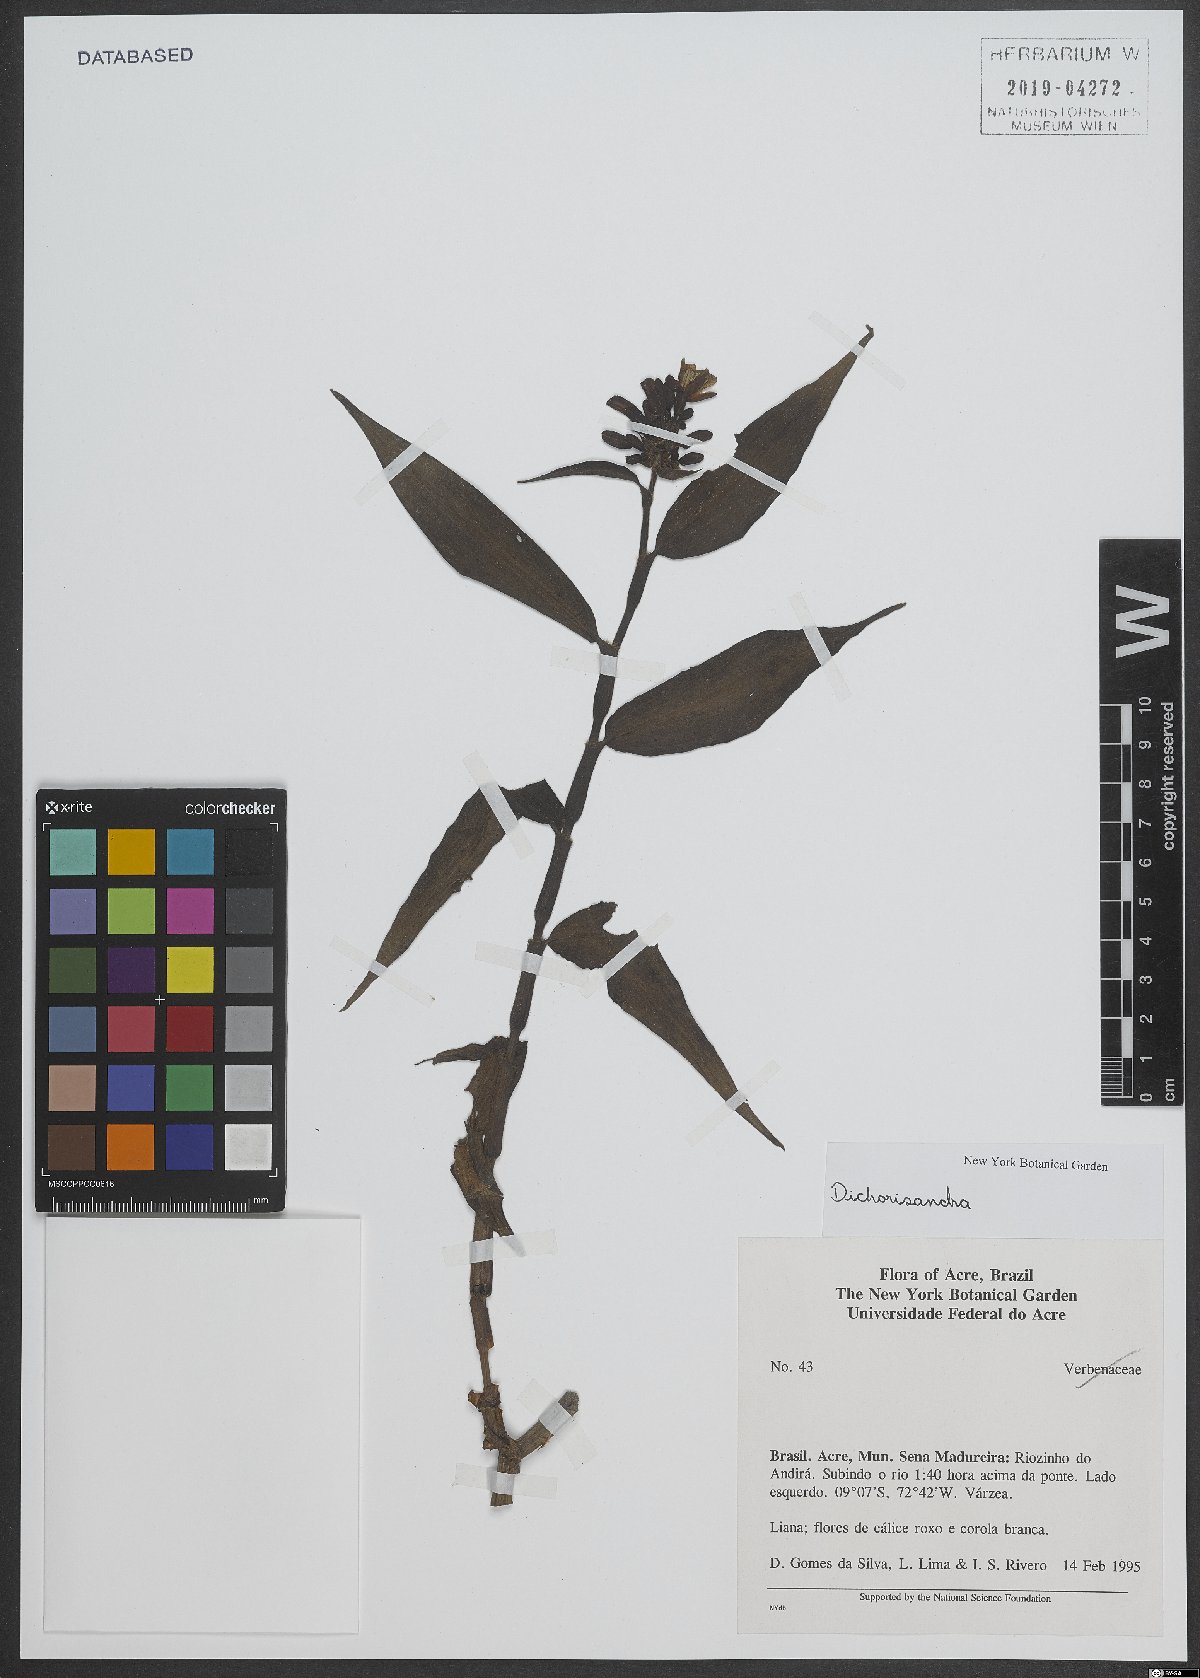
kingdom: Plantae
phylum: Tracheophyta
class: Liliopsida
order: Commelinales
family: Commelinaceae
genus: Dichorisandra
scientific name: Dichorisandra
